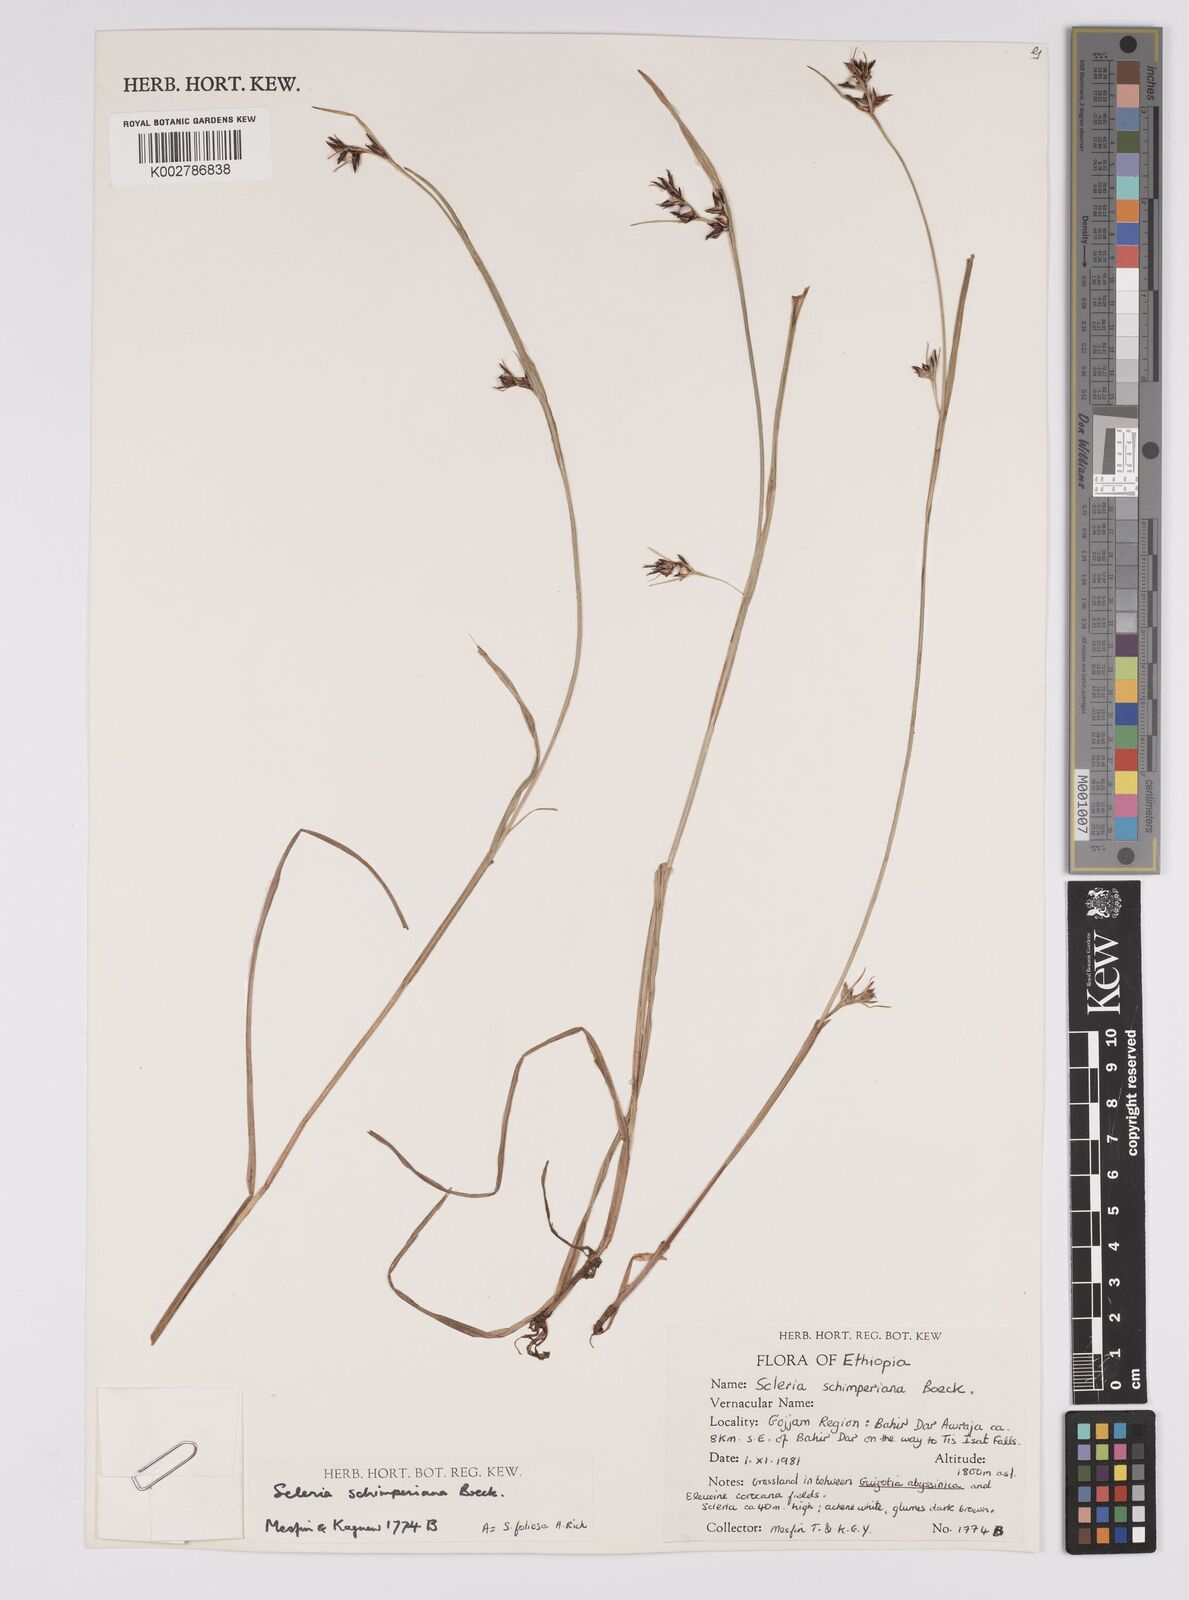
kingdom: Plantae
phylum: Tracheophyta
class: Liliopsida
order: Poales
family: Cyperaceae
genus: Scleria
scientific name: Scleria schimperiana
